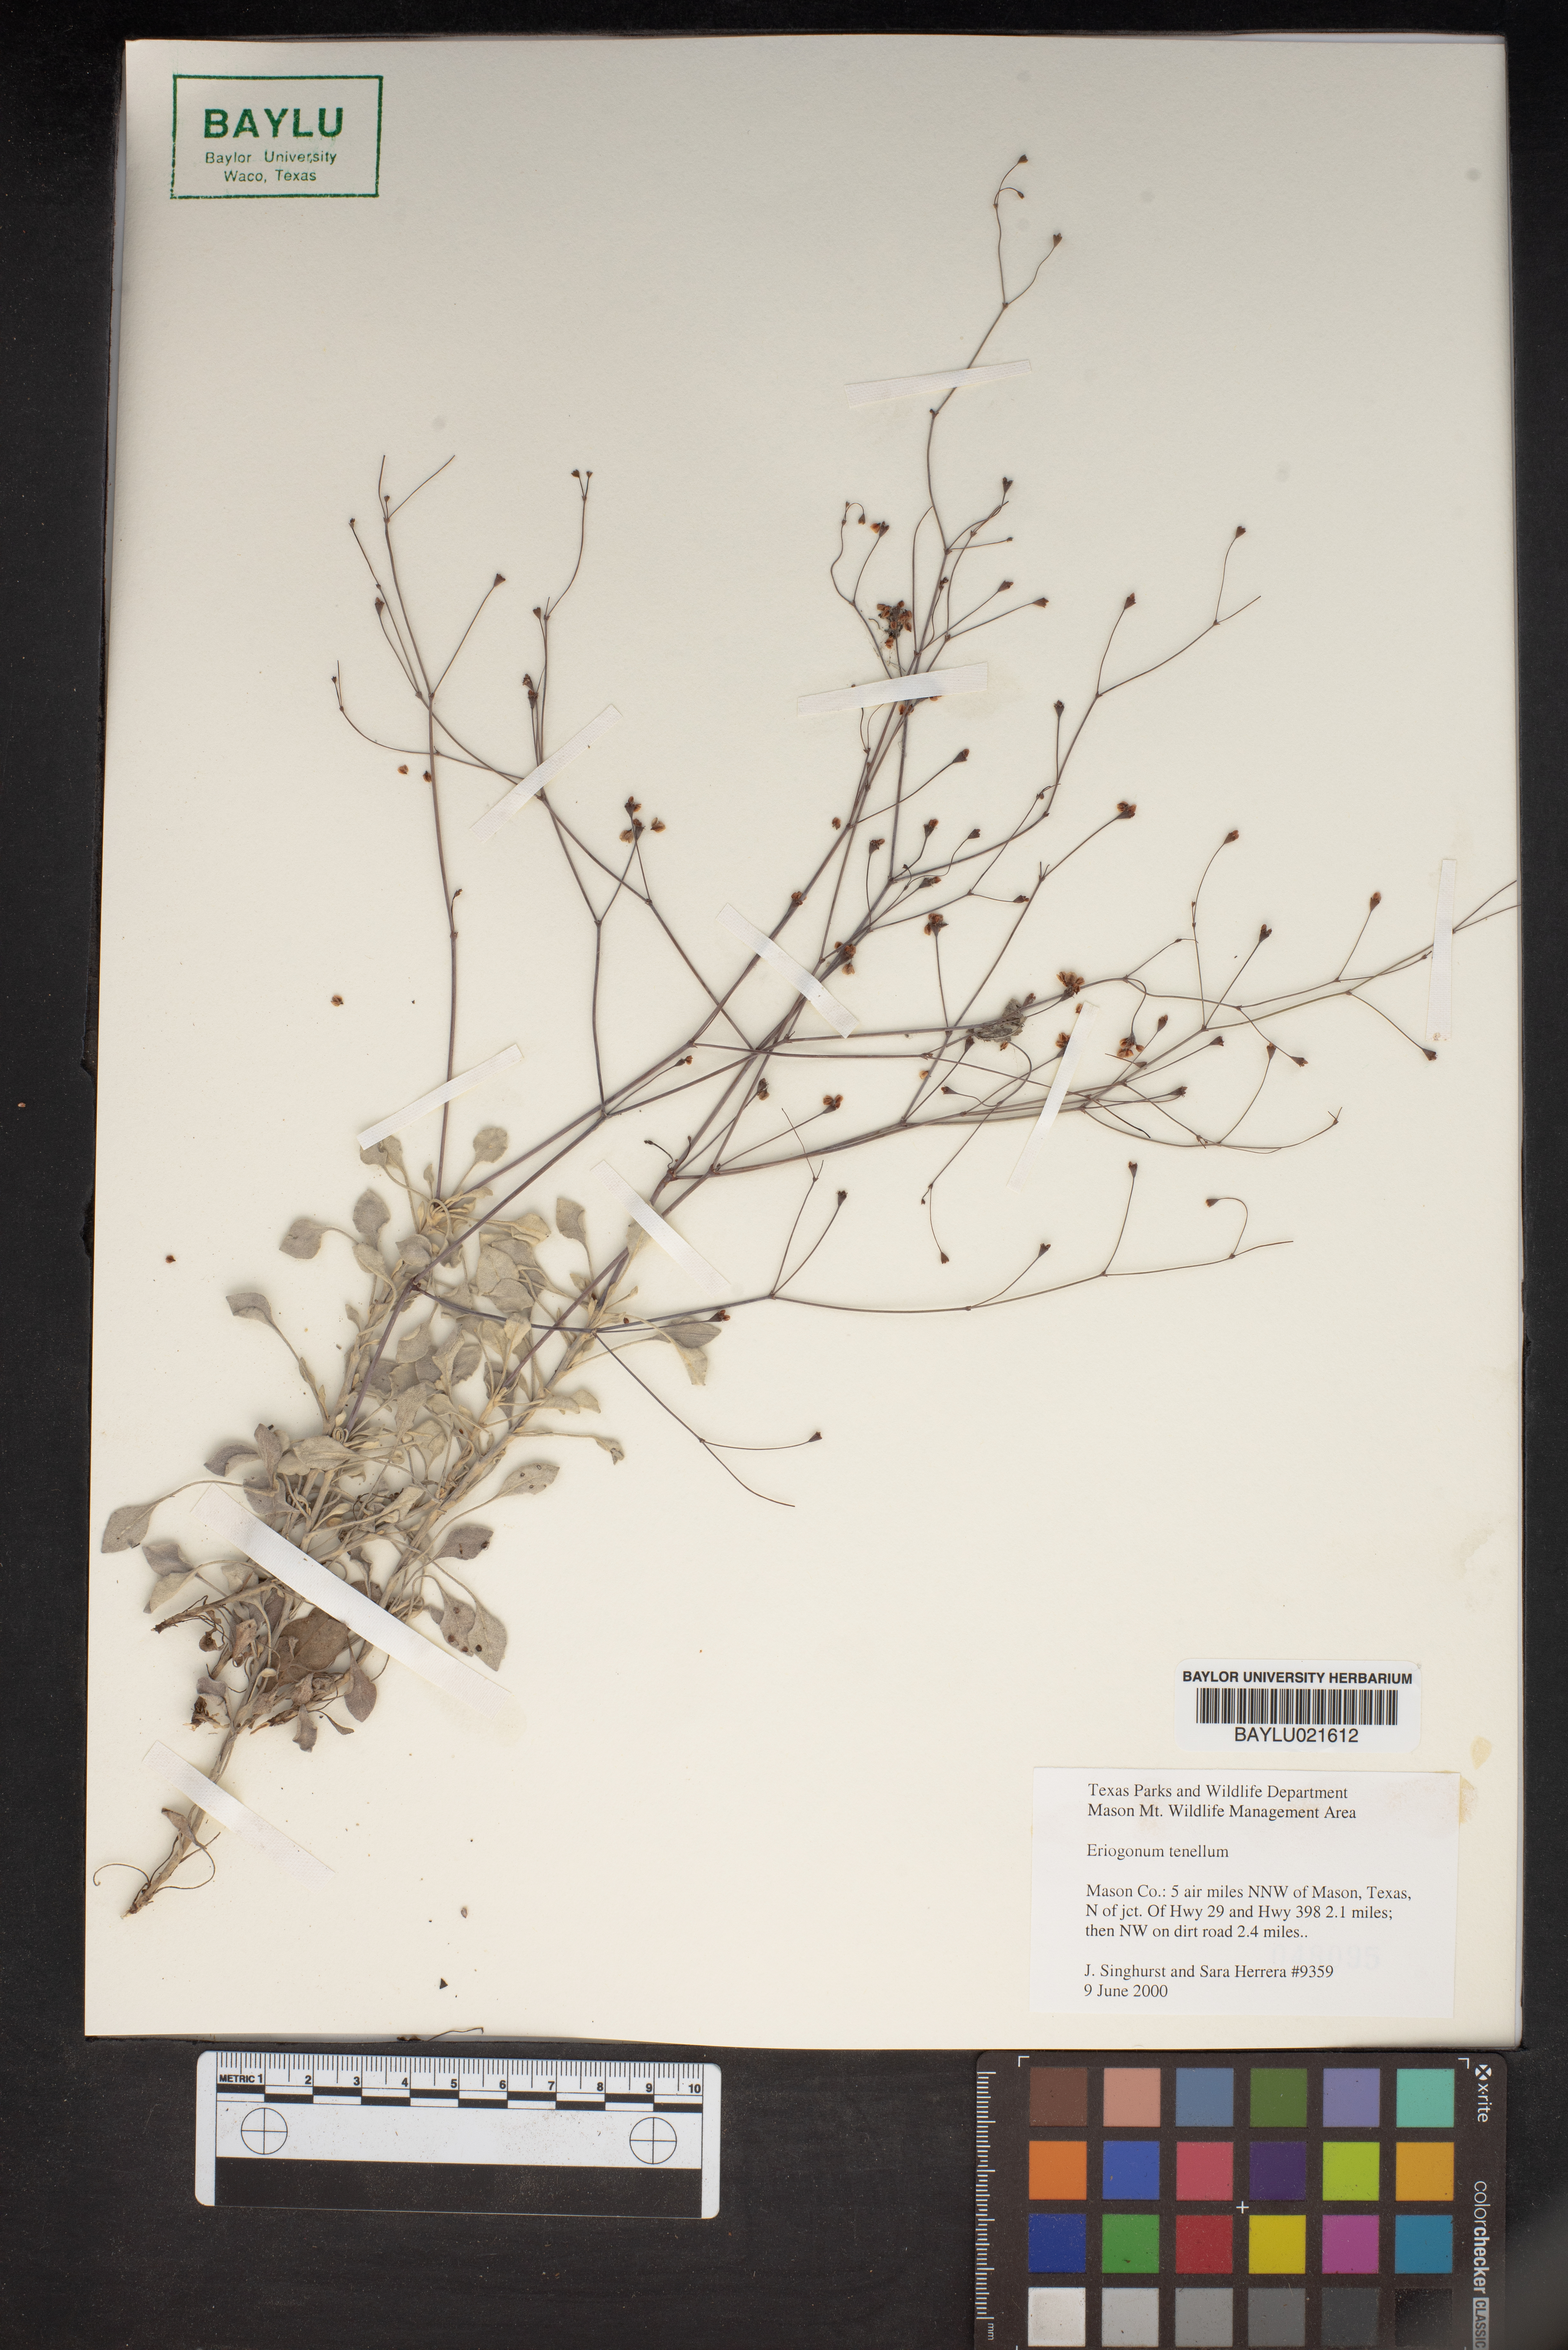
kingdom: Plantae
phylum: Tracheophyta
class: Magnoliopsida
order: Caryophyllales
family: Polygonaceae
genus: Eriogonum
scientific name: Eriogonum tenellum
